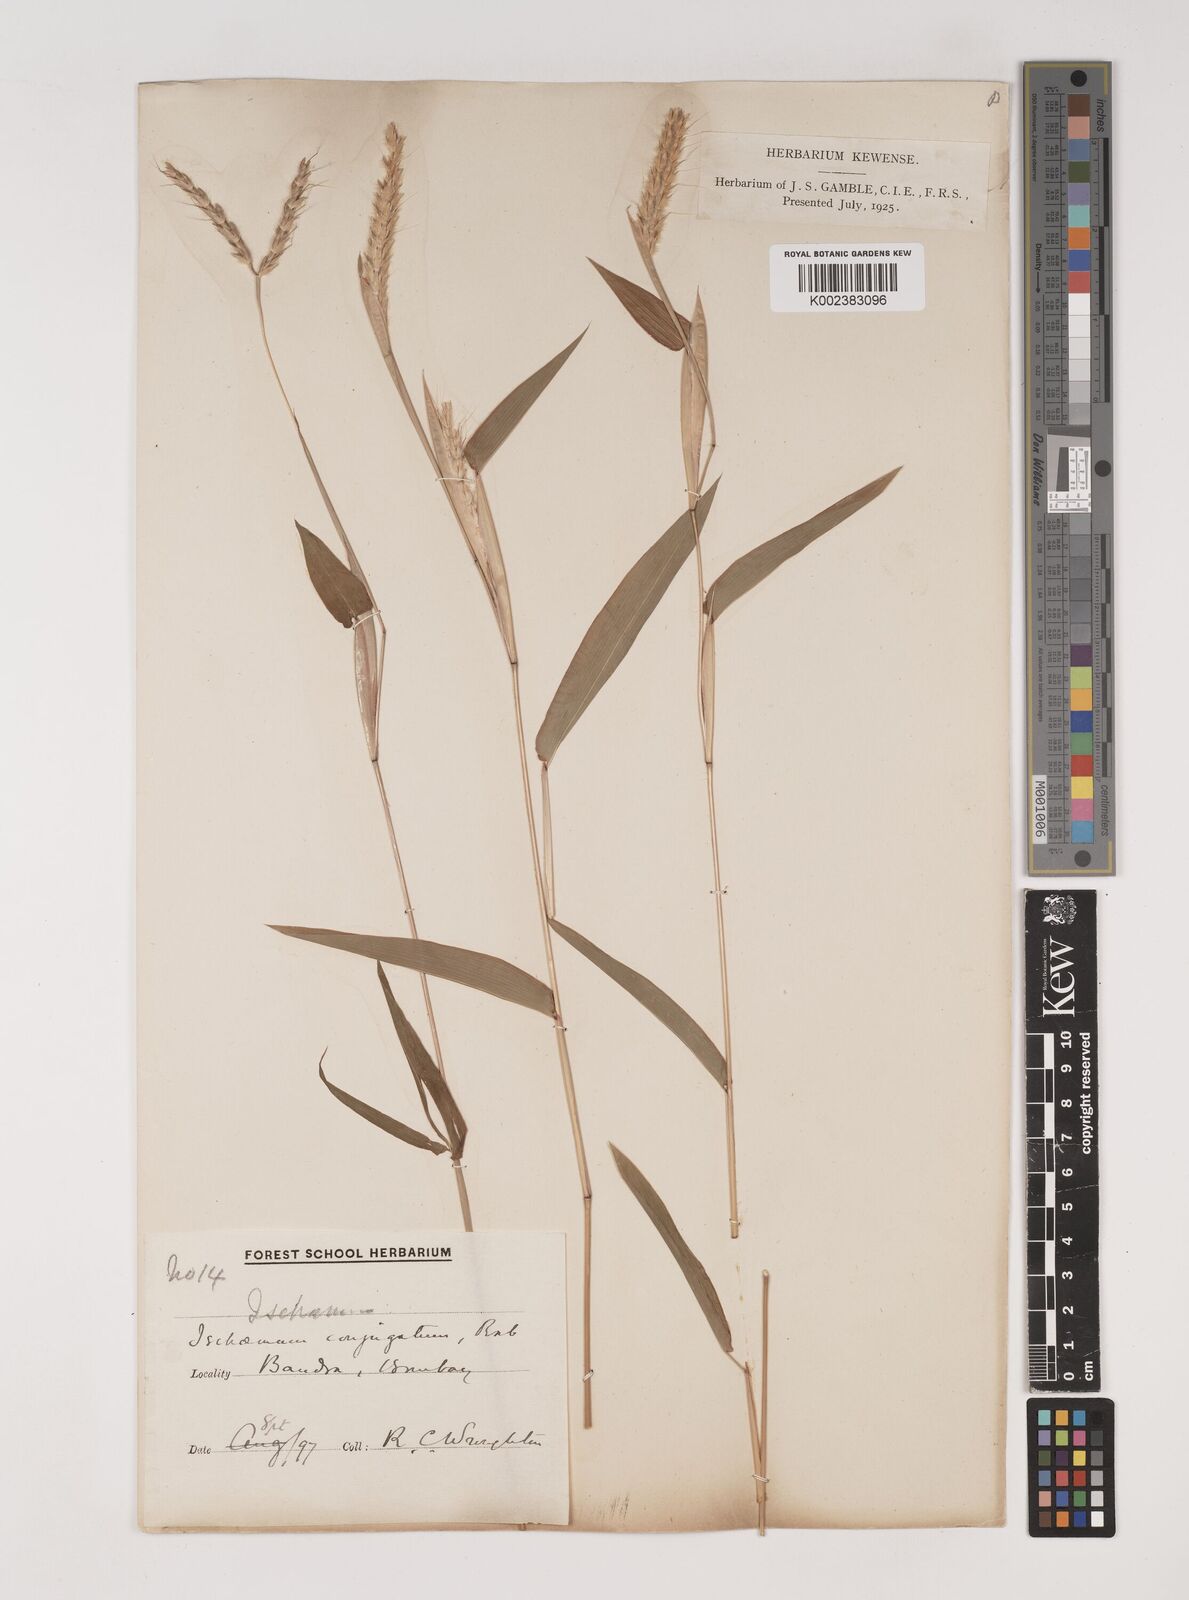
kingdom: Plantae
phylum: Tracheophyta
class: Liliopsida
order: Poales
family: Poaceae
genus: Ischaemum
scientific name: Ischaemum molle
